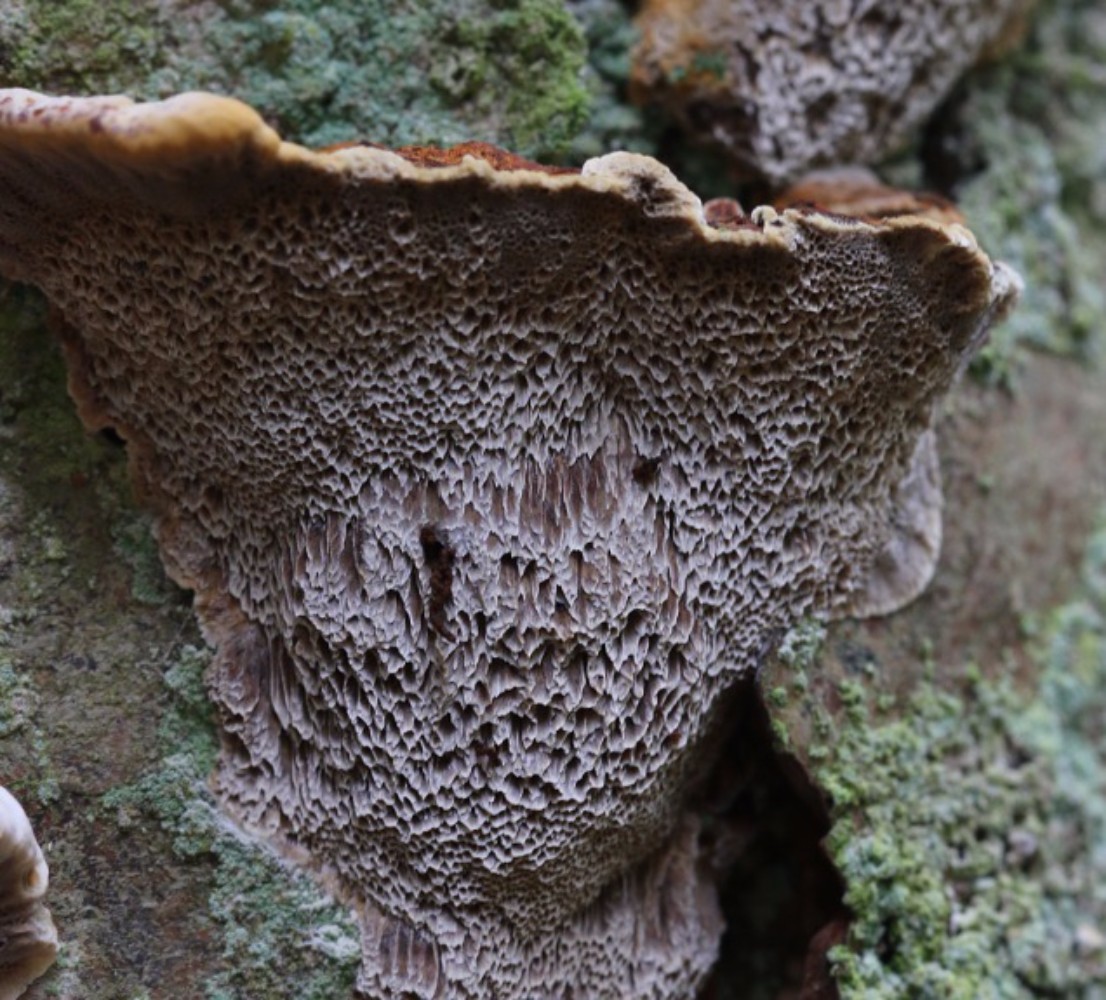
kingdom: Fungi
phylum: Basidiomycota
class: Agaricomycetes
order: Hymenochaetales
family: Hymenochaetaceae
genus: Xanthoporia
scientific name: Xanthoporia radiata
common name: elle-spejlporesvamp
